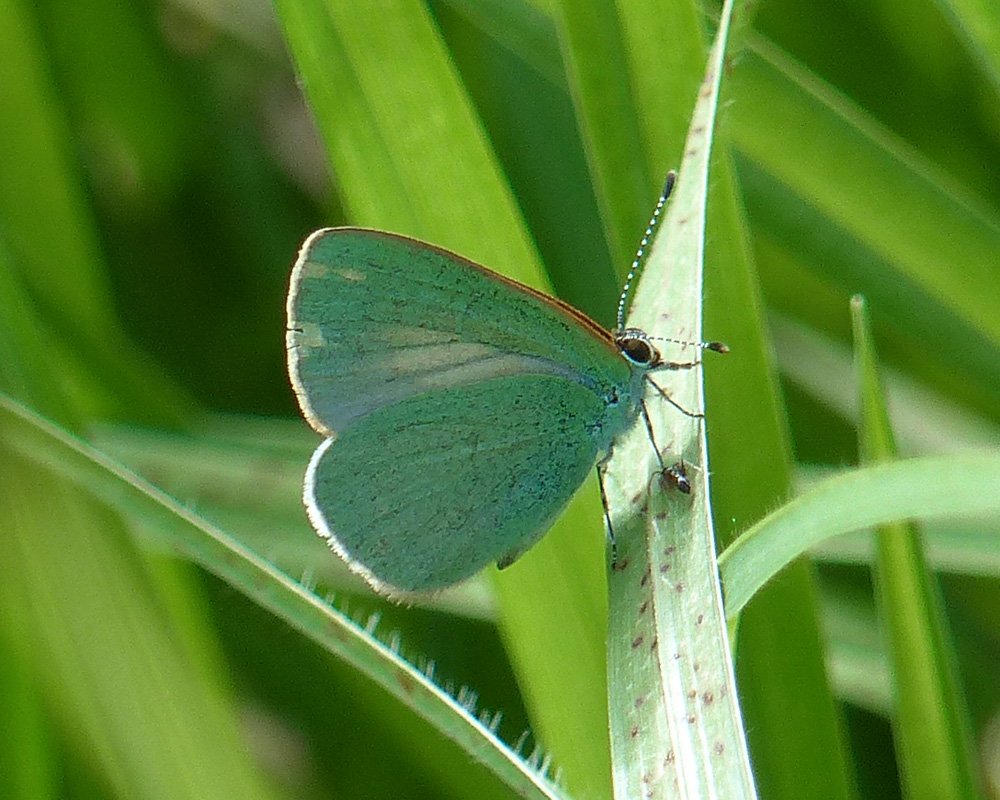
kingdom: Animalia
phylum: Arthropoda
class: Insecta
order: Lepidoptera
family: Lycaenidae
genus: Udara
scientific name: Udara blackburni
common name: Hawaiian Blue
